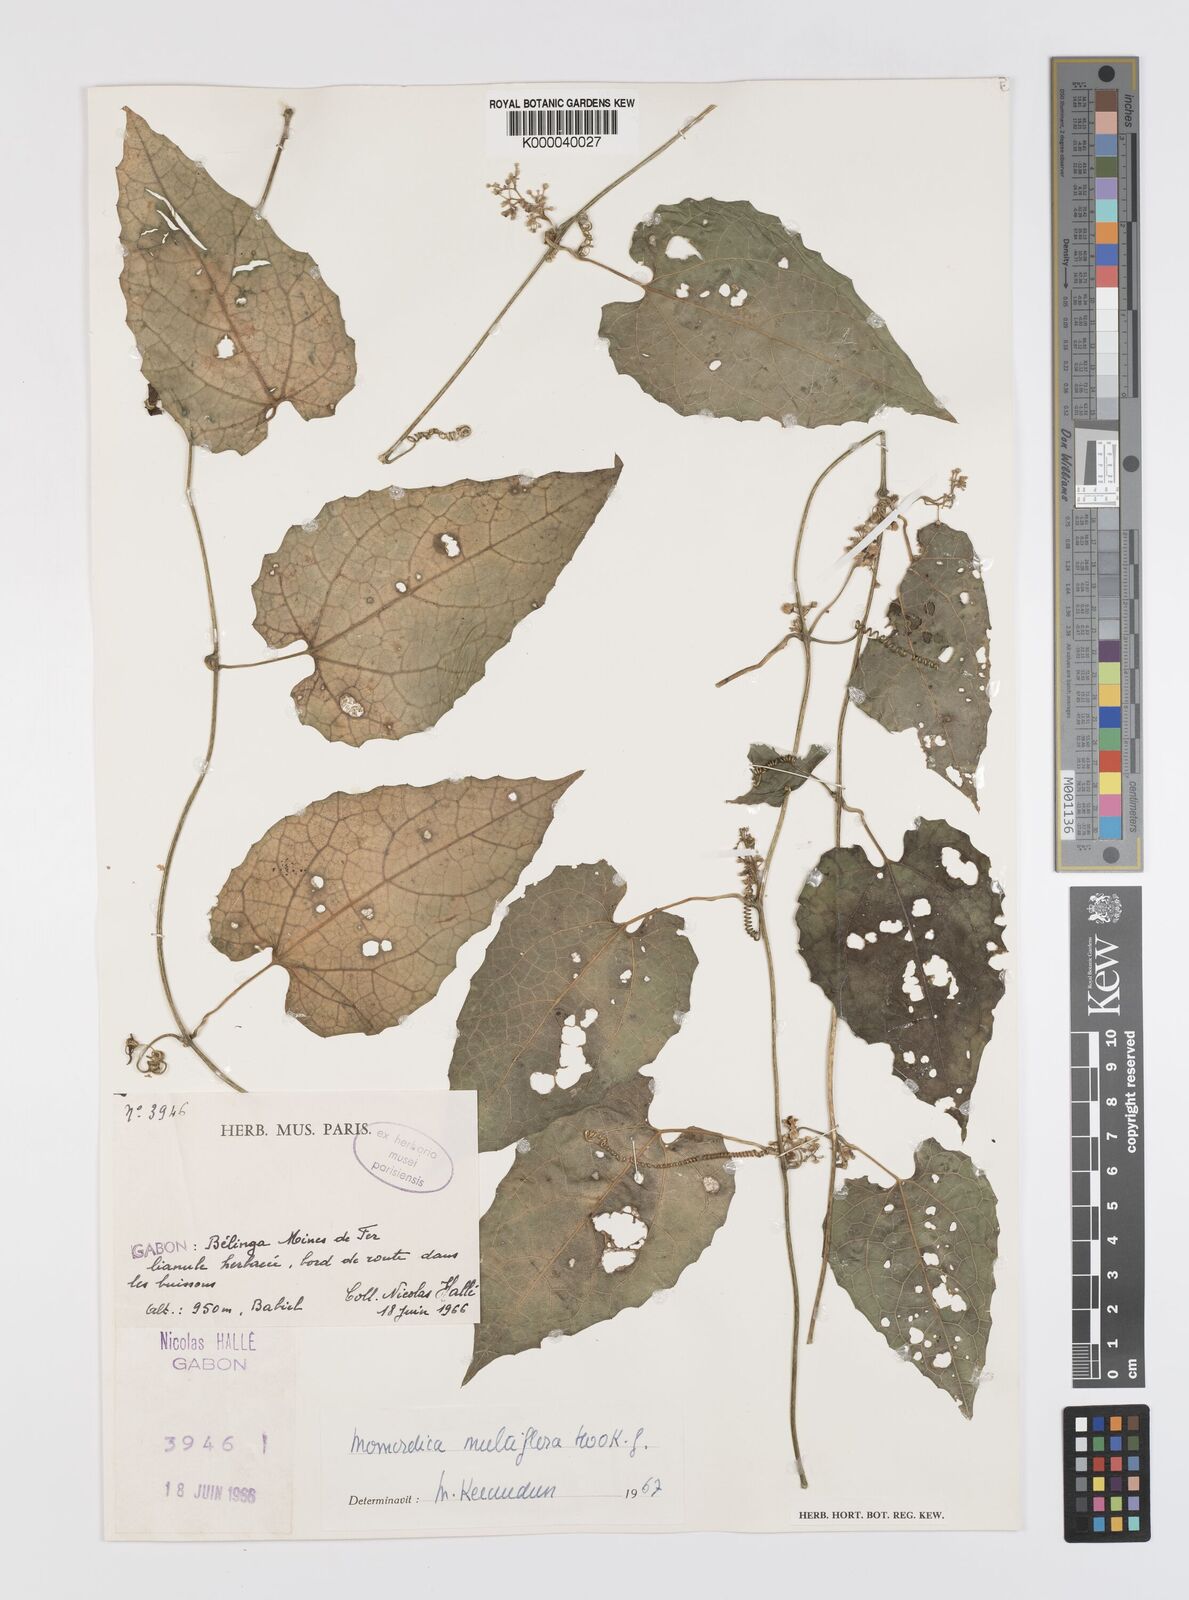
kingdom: Plantae
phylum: Tracheophyta
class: Magnoliopsida
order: Cucurbitales
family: Cucurbitaceae
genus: Momordica
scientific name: Momordica multiflora
